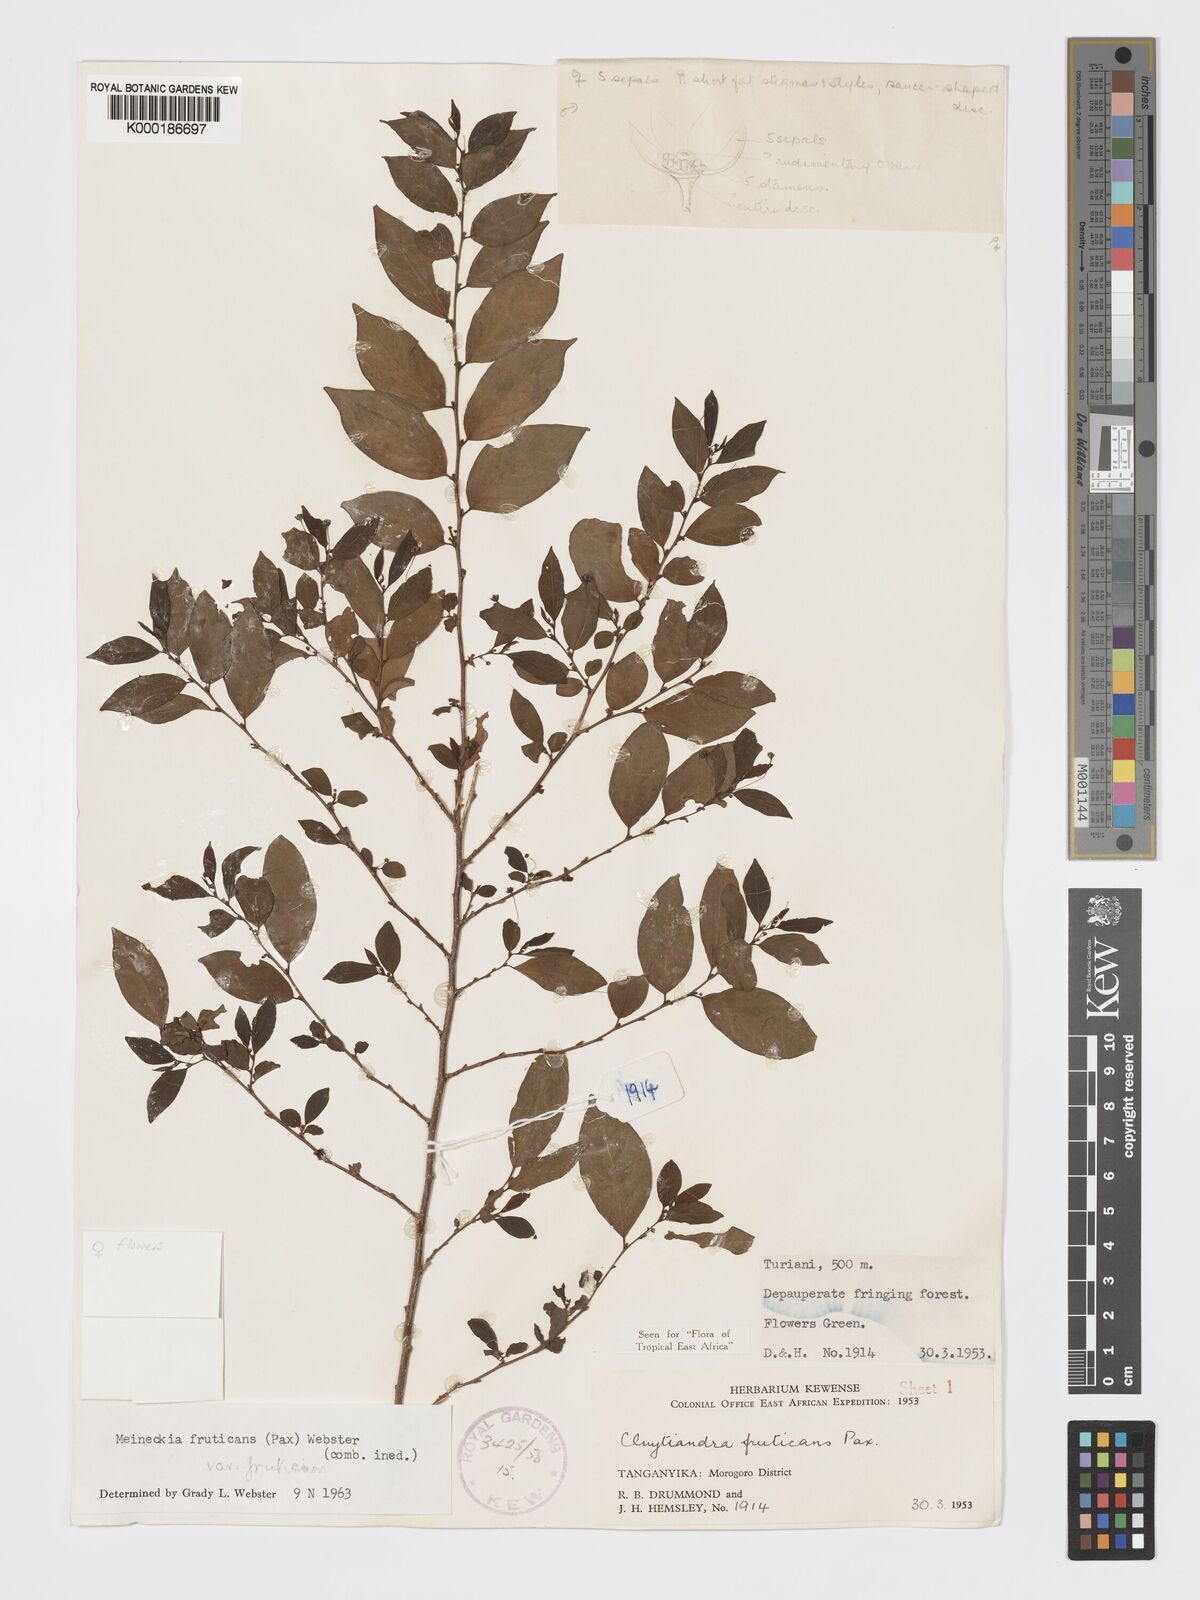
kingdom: Plantae
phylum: Tracheophyta
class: Magnoliopsida
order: Malpighiales
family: Phyllanthaceae
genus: Meineckia
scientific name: Meineckia fruticans
